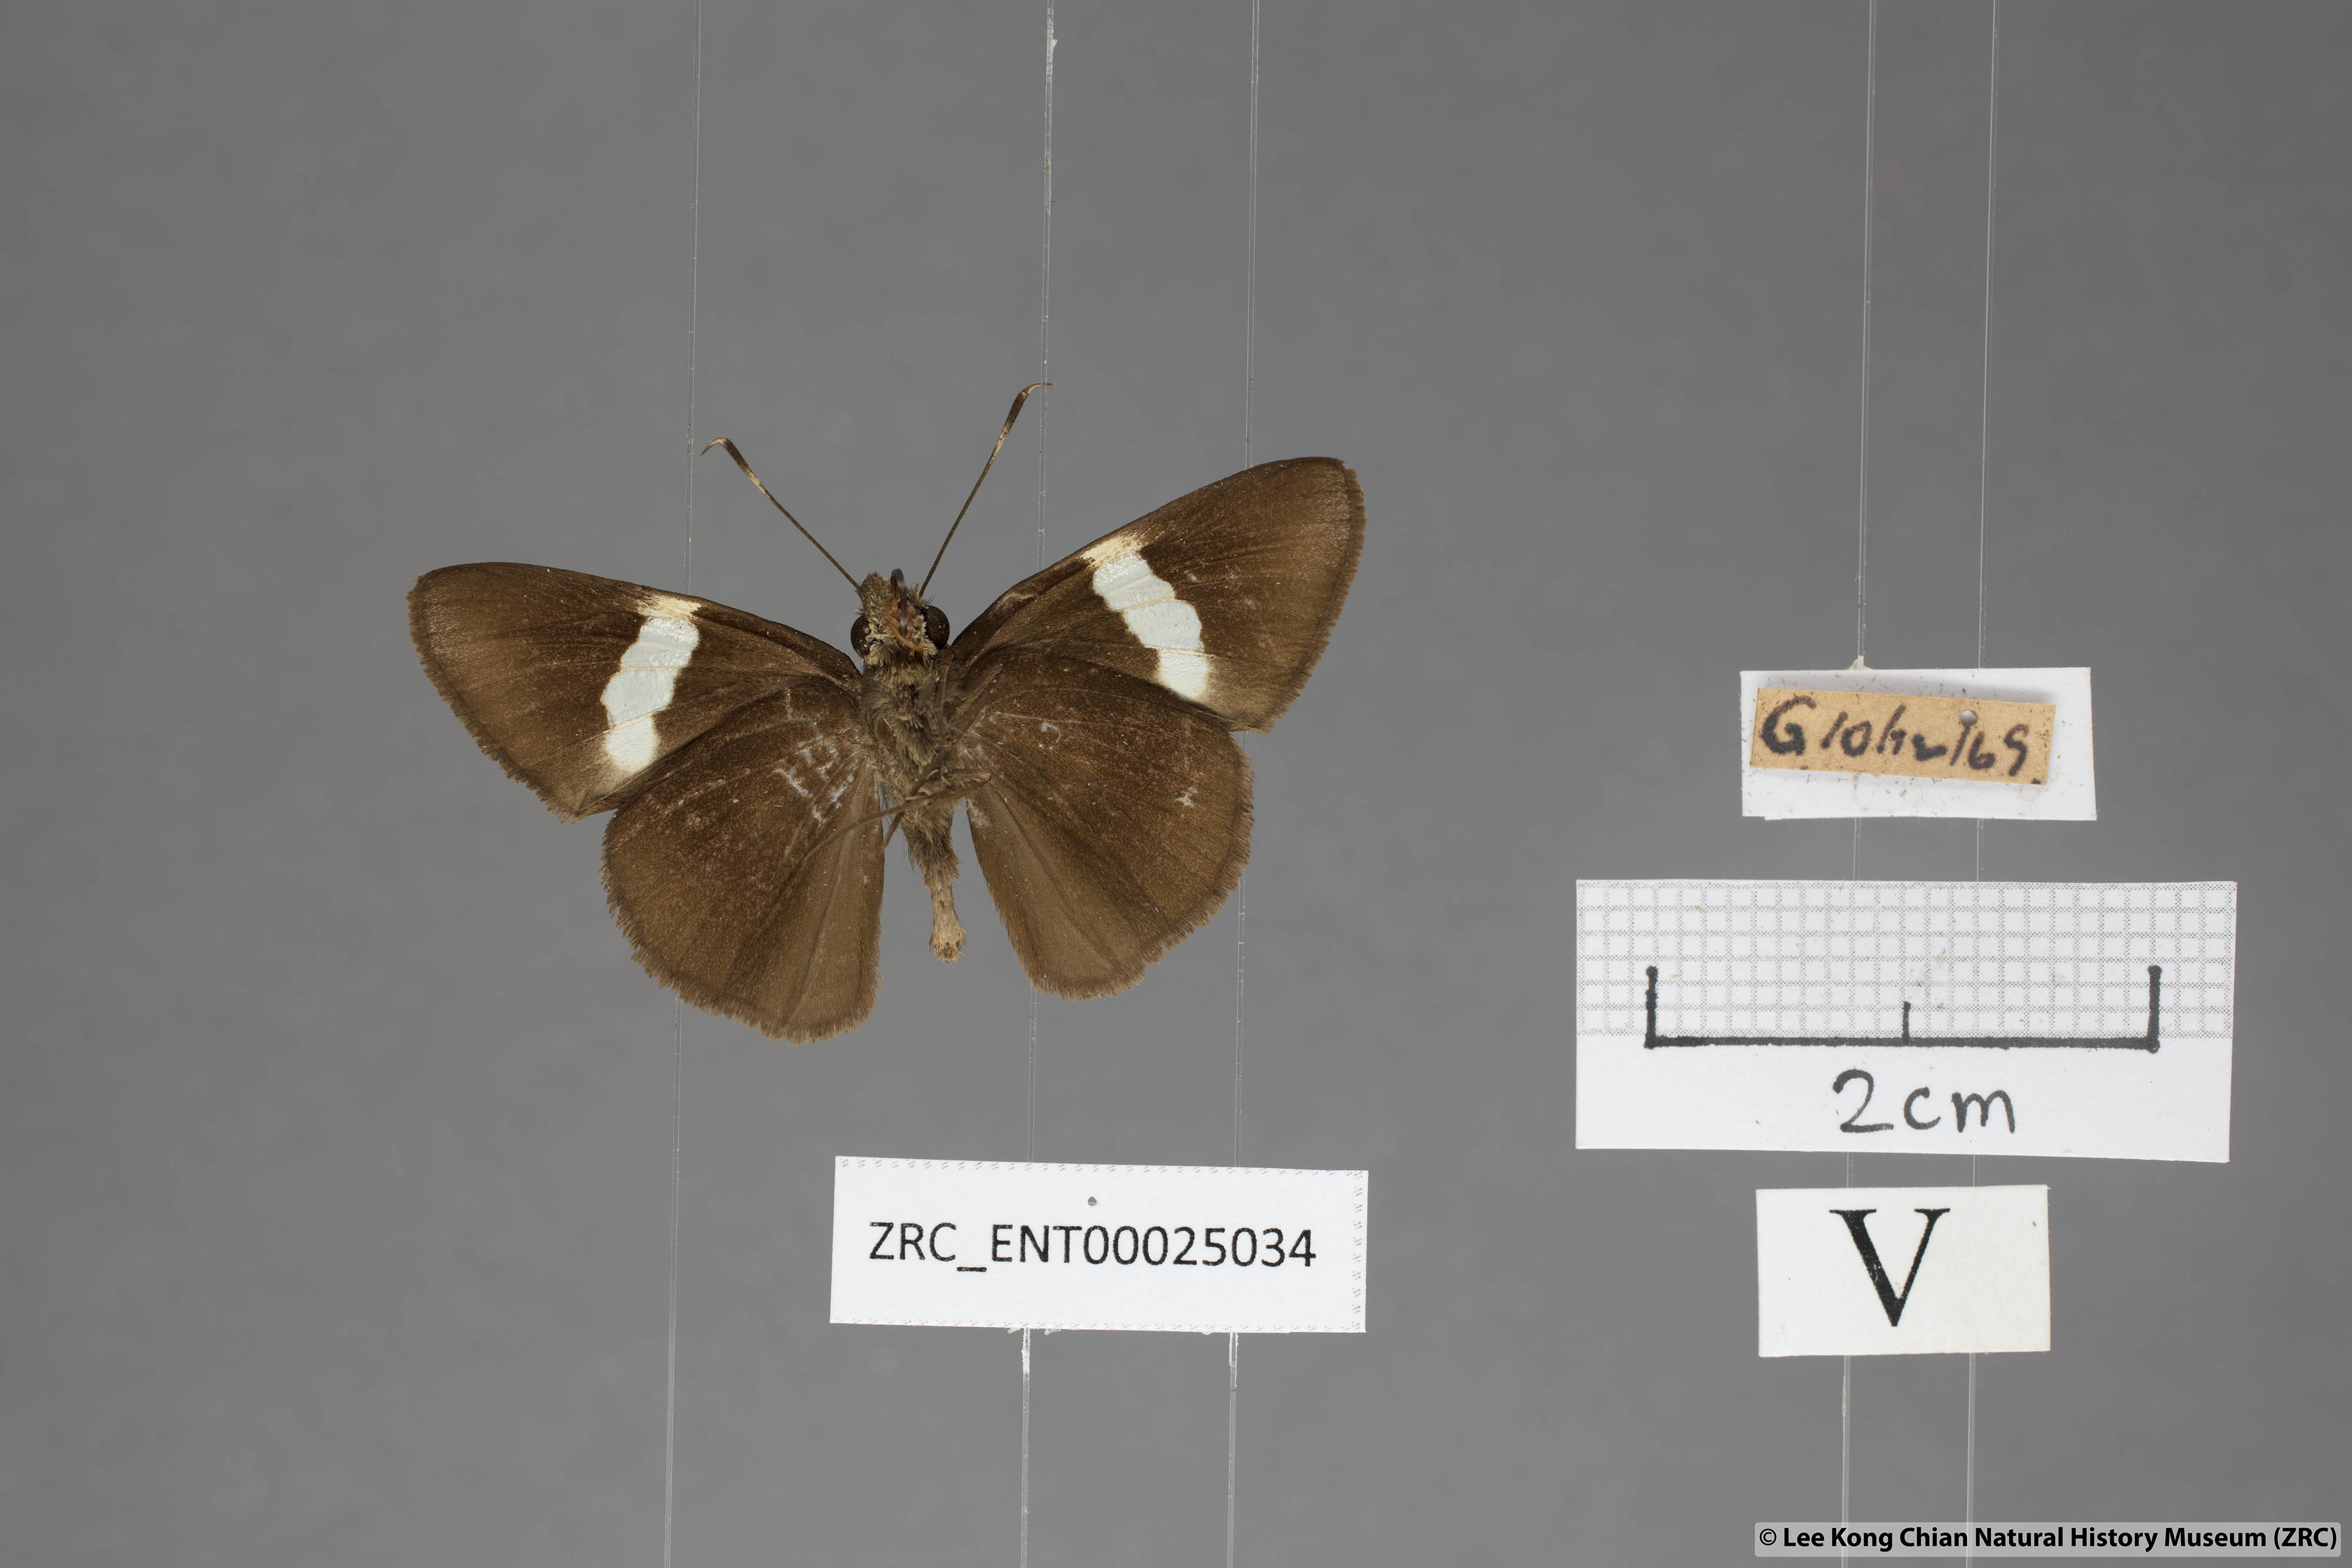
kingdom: Animalia
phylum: Arthropoda
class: Insecta
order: Lepidoptera
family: Hesperiidae
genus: Notocrypta
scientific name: Notocrypta paralysos
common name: Common banded demon
